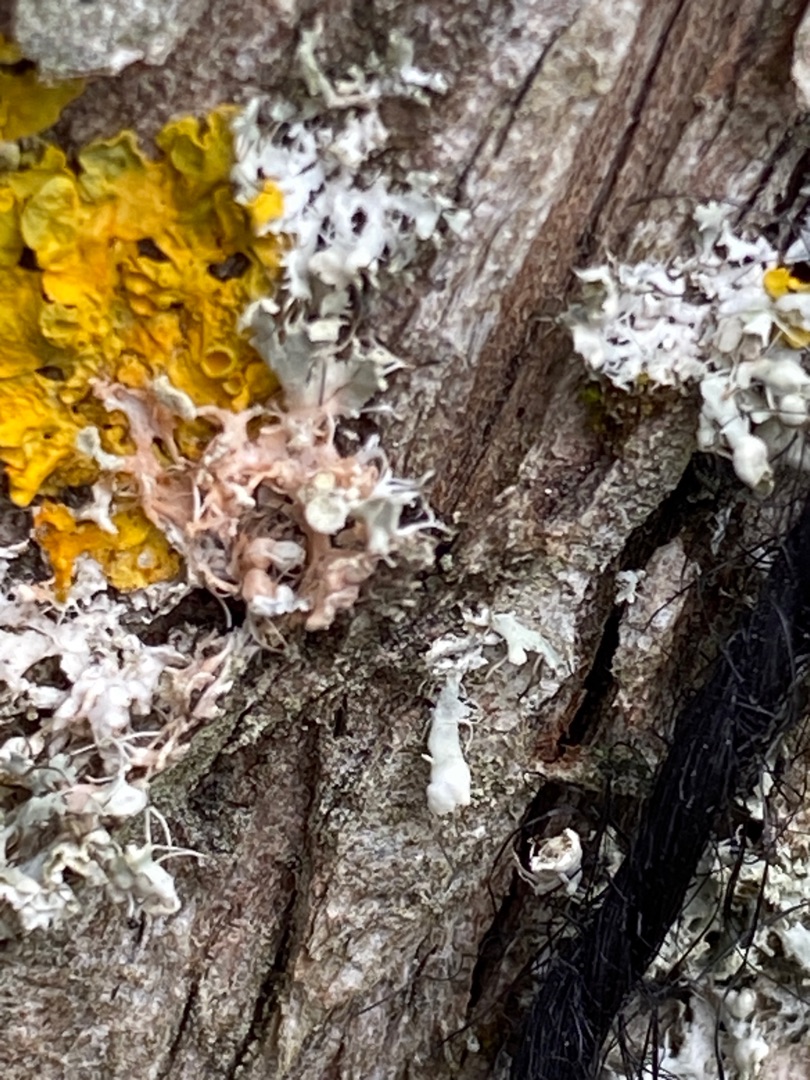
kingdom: Fungi
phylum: Ascomycota
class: Lecanoromycetes
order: Caliciales
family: Physciaceae
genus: Physcia
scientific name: Physcia adscendens
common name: Hætte-rosetlav
